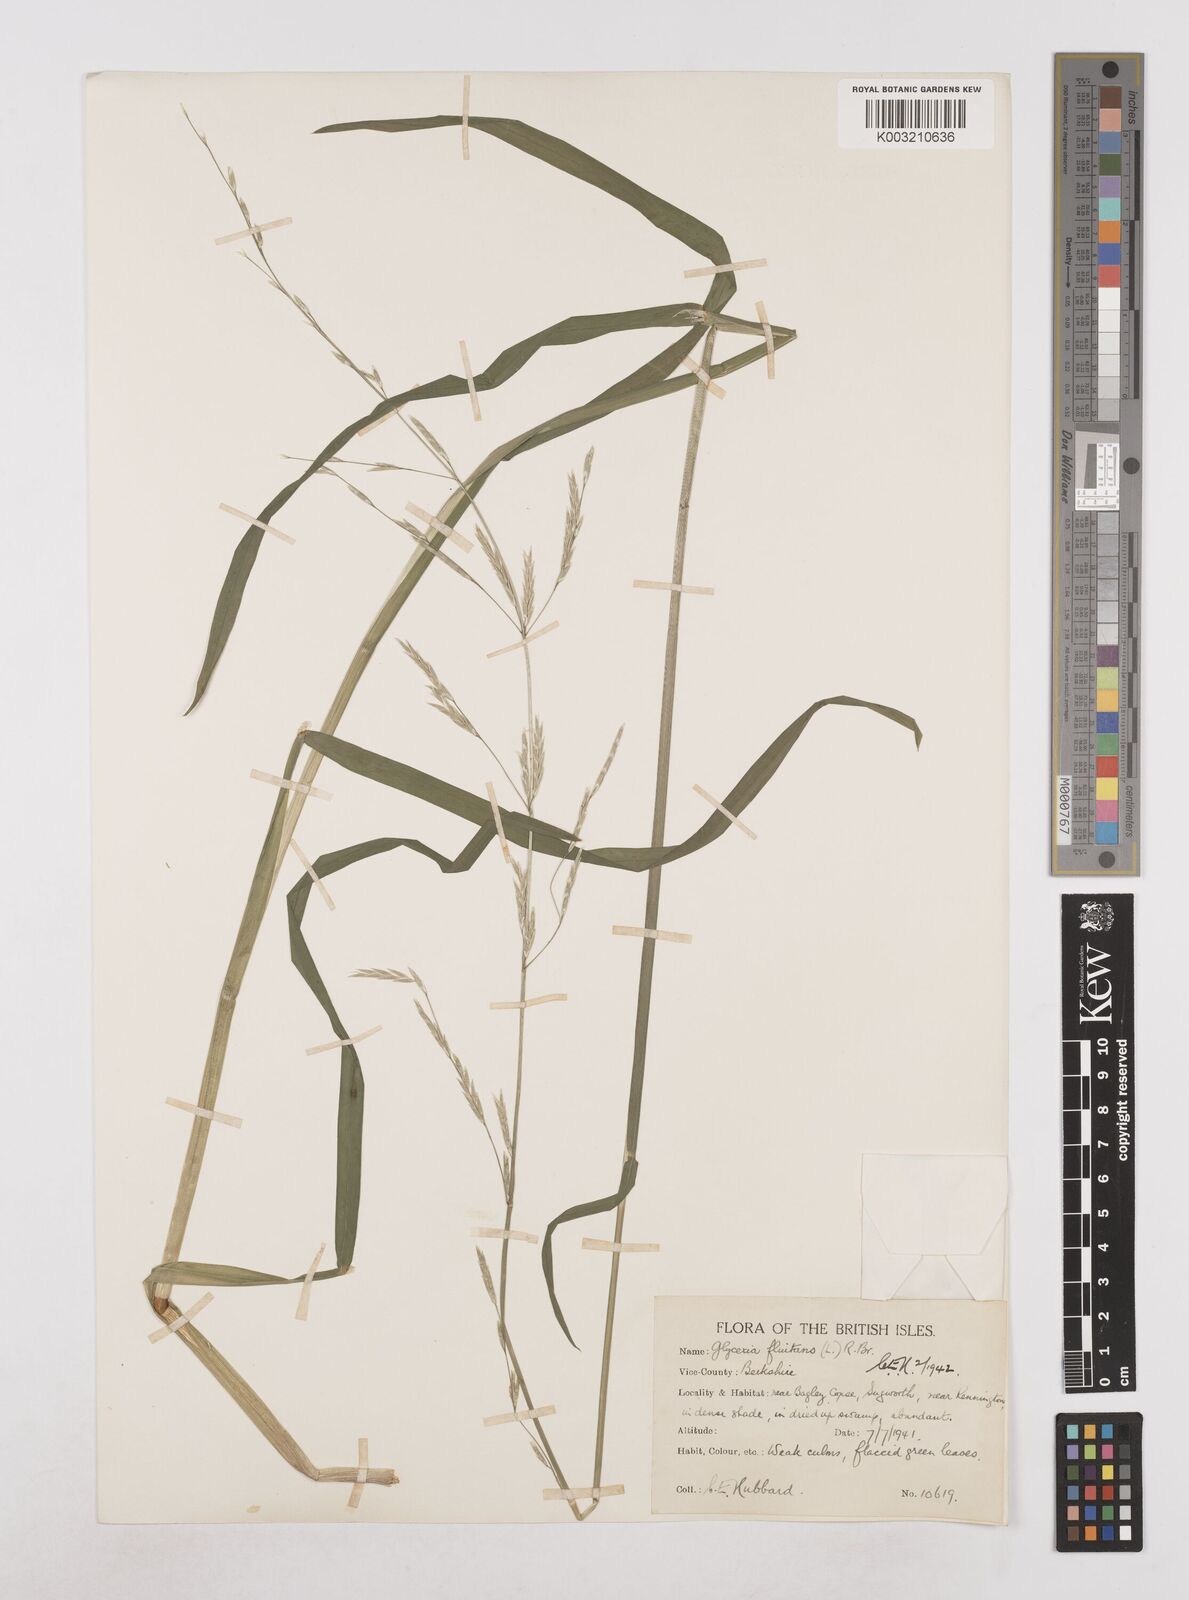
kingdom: Plantae
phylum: Tracheophyta
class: Liliopsida
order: Poales
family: Poaceae
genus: Glyceria
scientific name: Glyceria fluitans
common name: Floating sweet-grass
